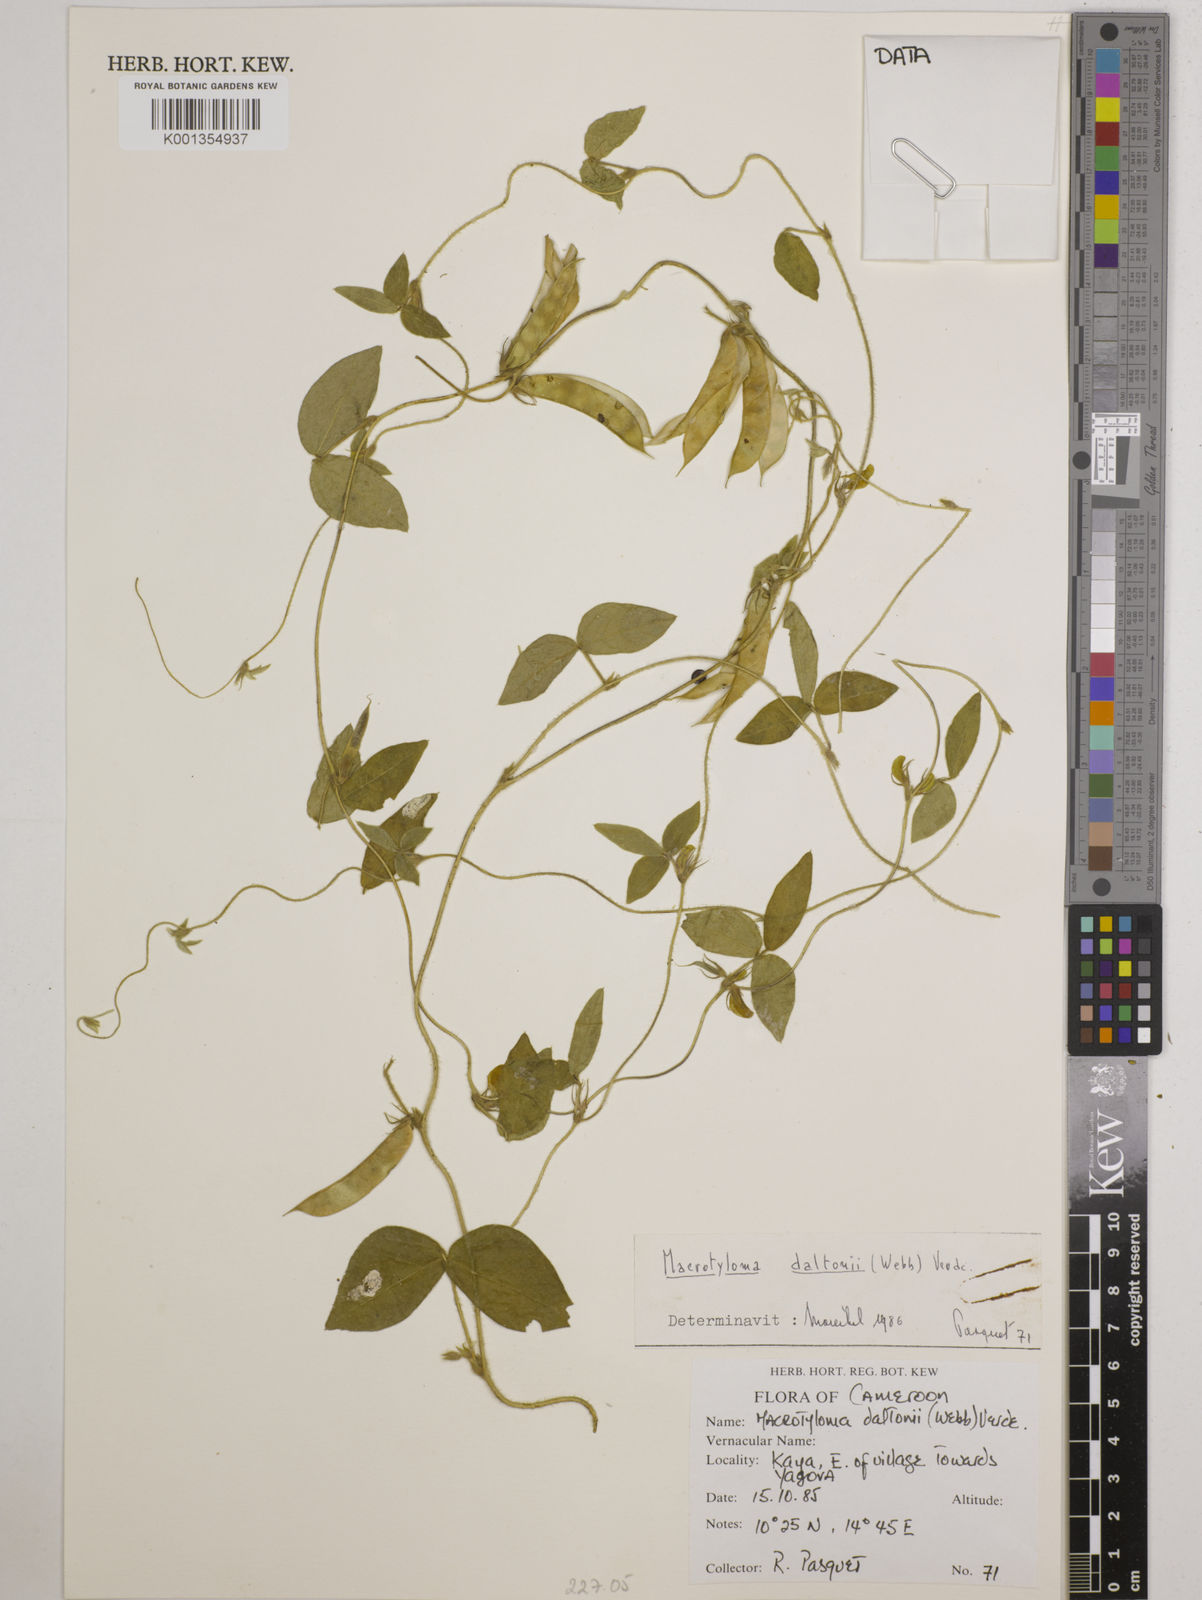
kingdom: Plantae
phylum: Tracheophyta
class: Magnoliopsida
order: Fabales
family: Fabaceae
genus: Macrotyloma
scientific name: Macrotyloma daltonii
